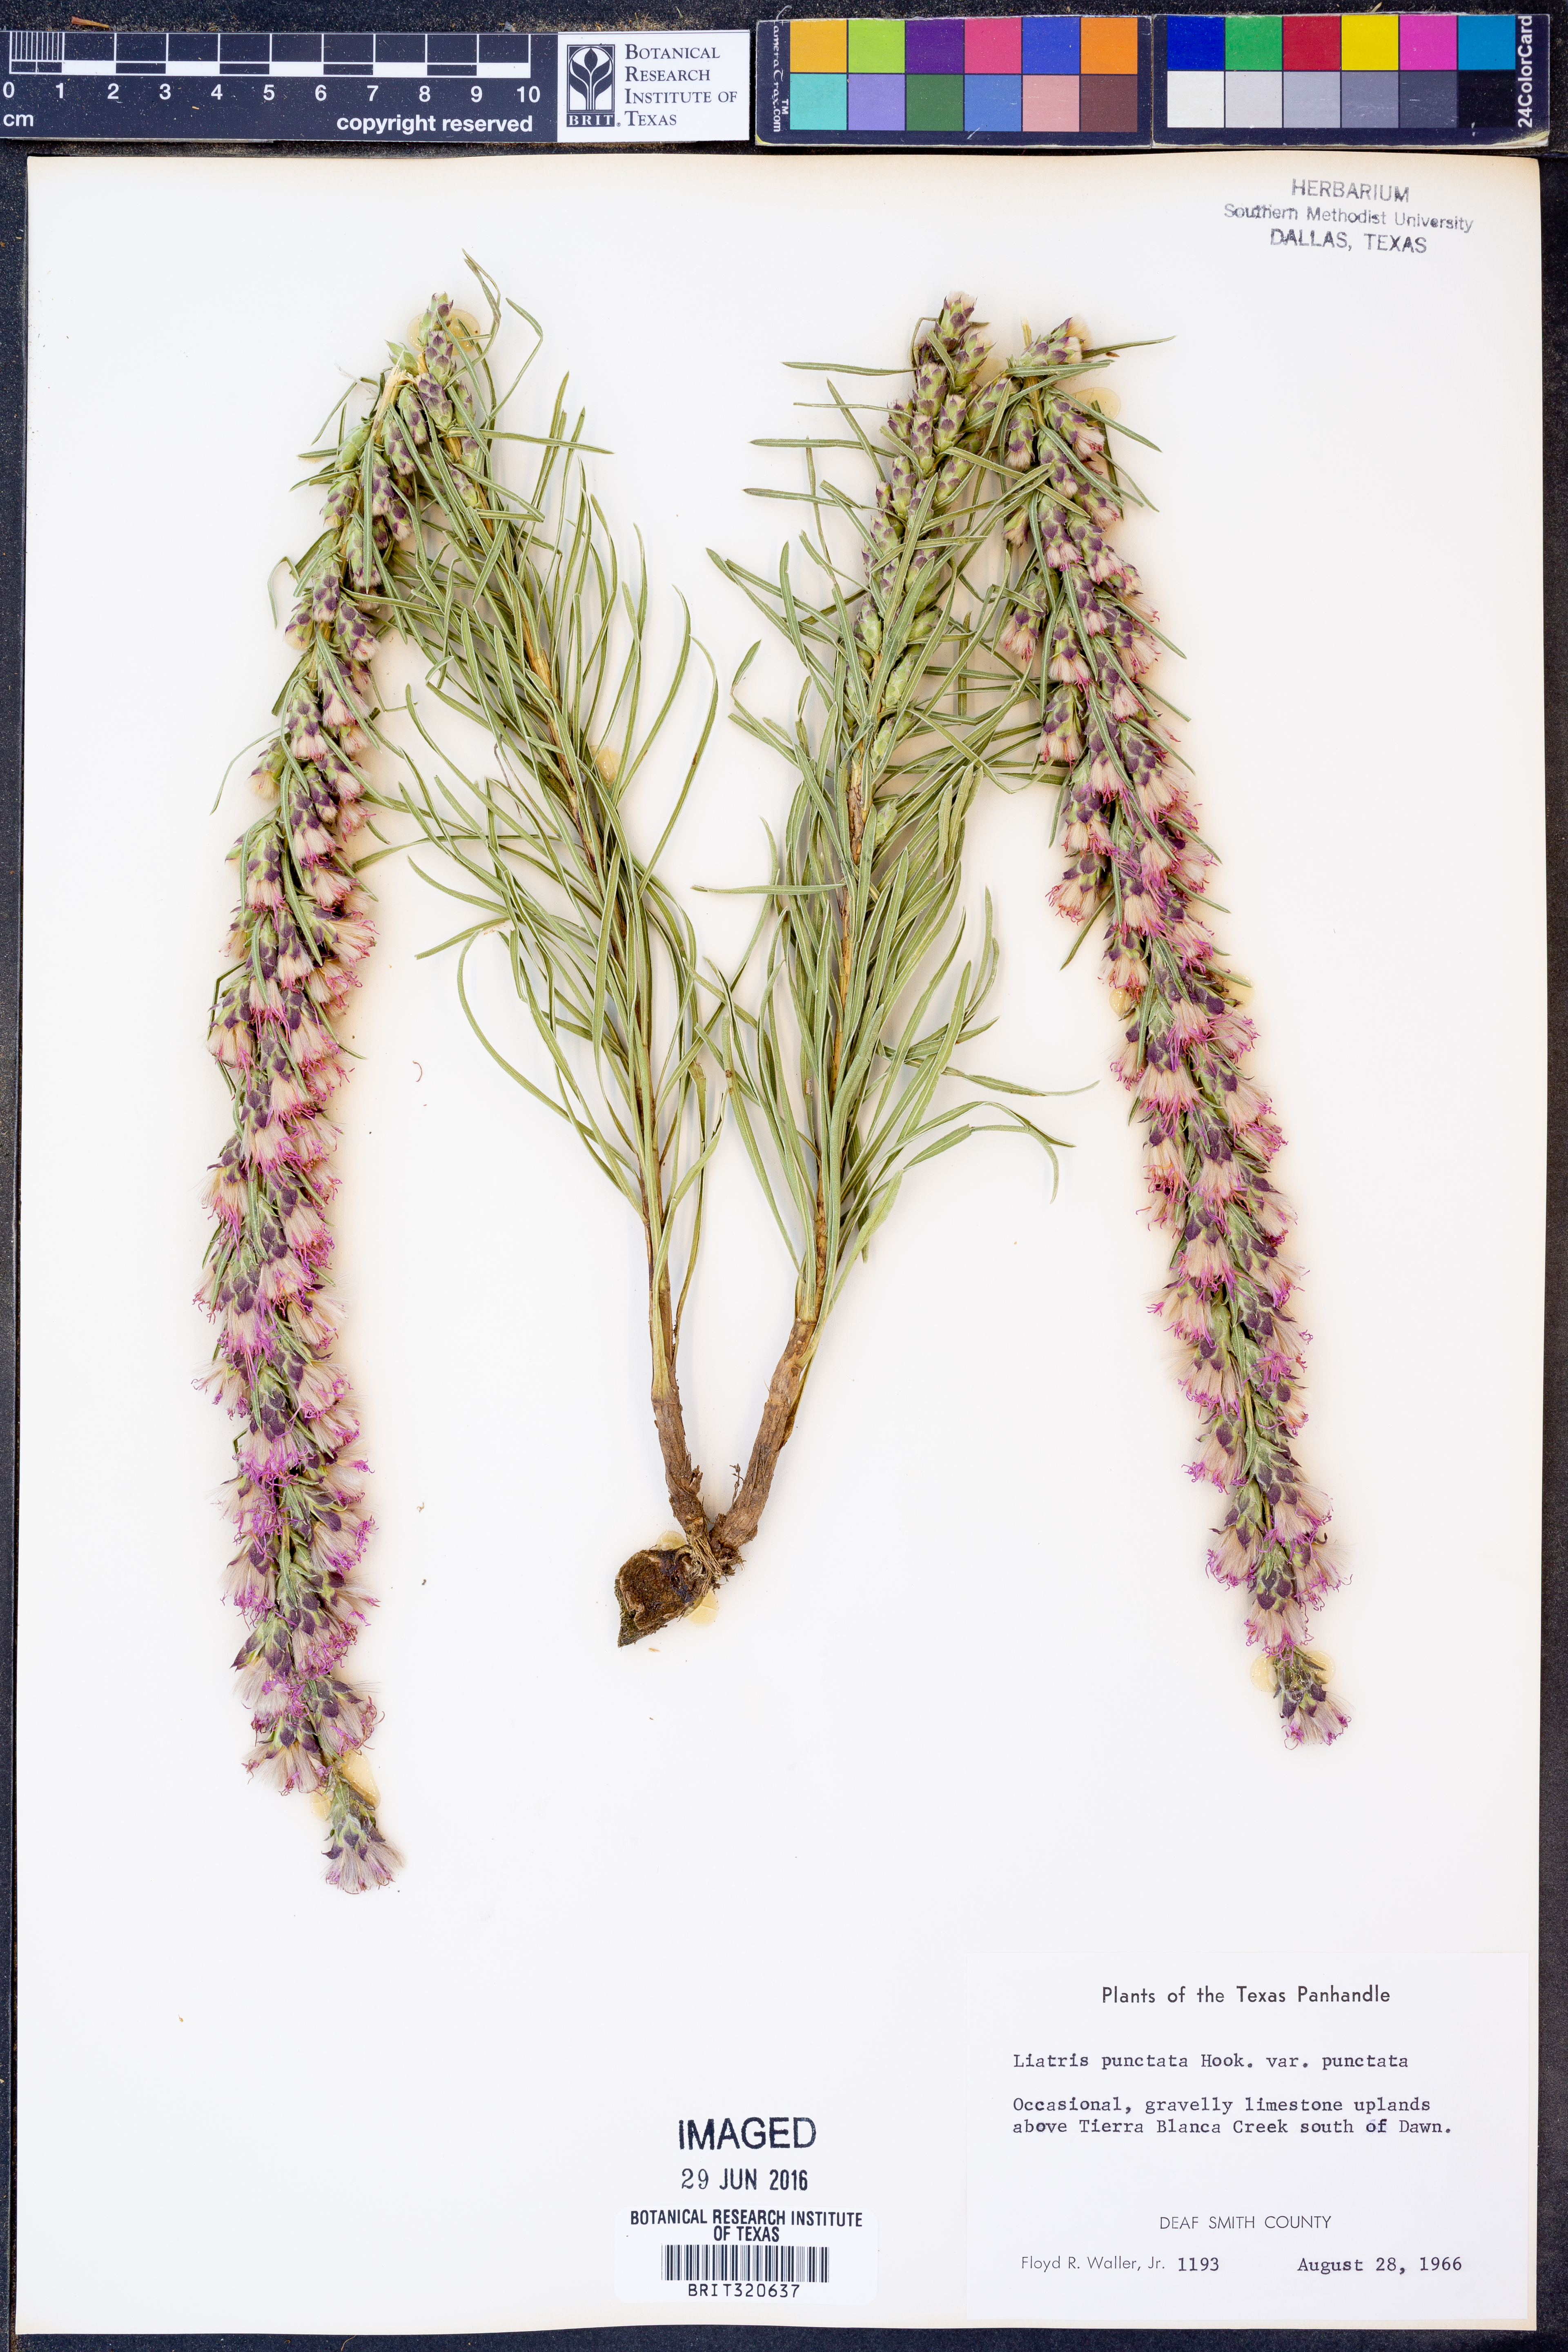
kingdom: Plantae
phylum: Tracheophyta
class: Magnoliopsida
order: Asterales
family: Asteraceae
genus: Liatris
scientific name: Liatris punctata
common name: Dotted gayfeather
